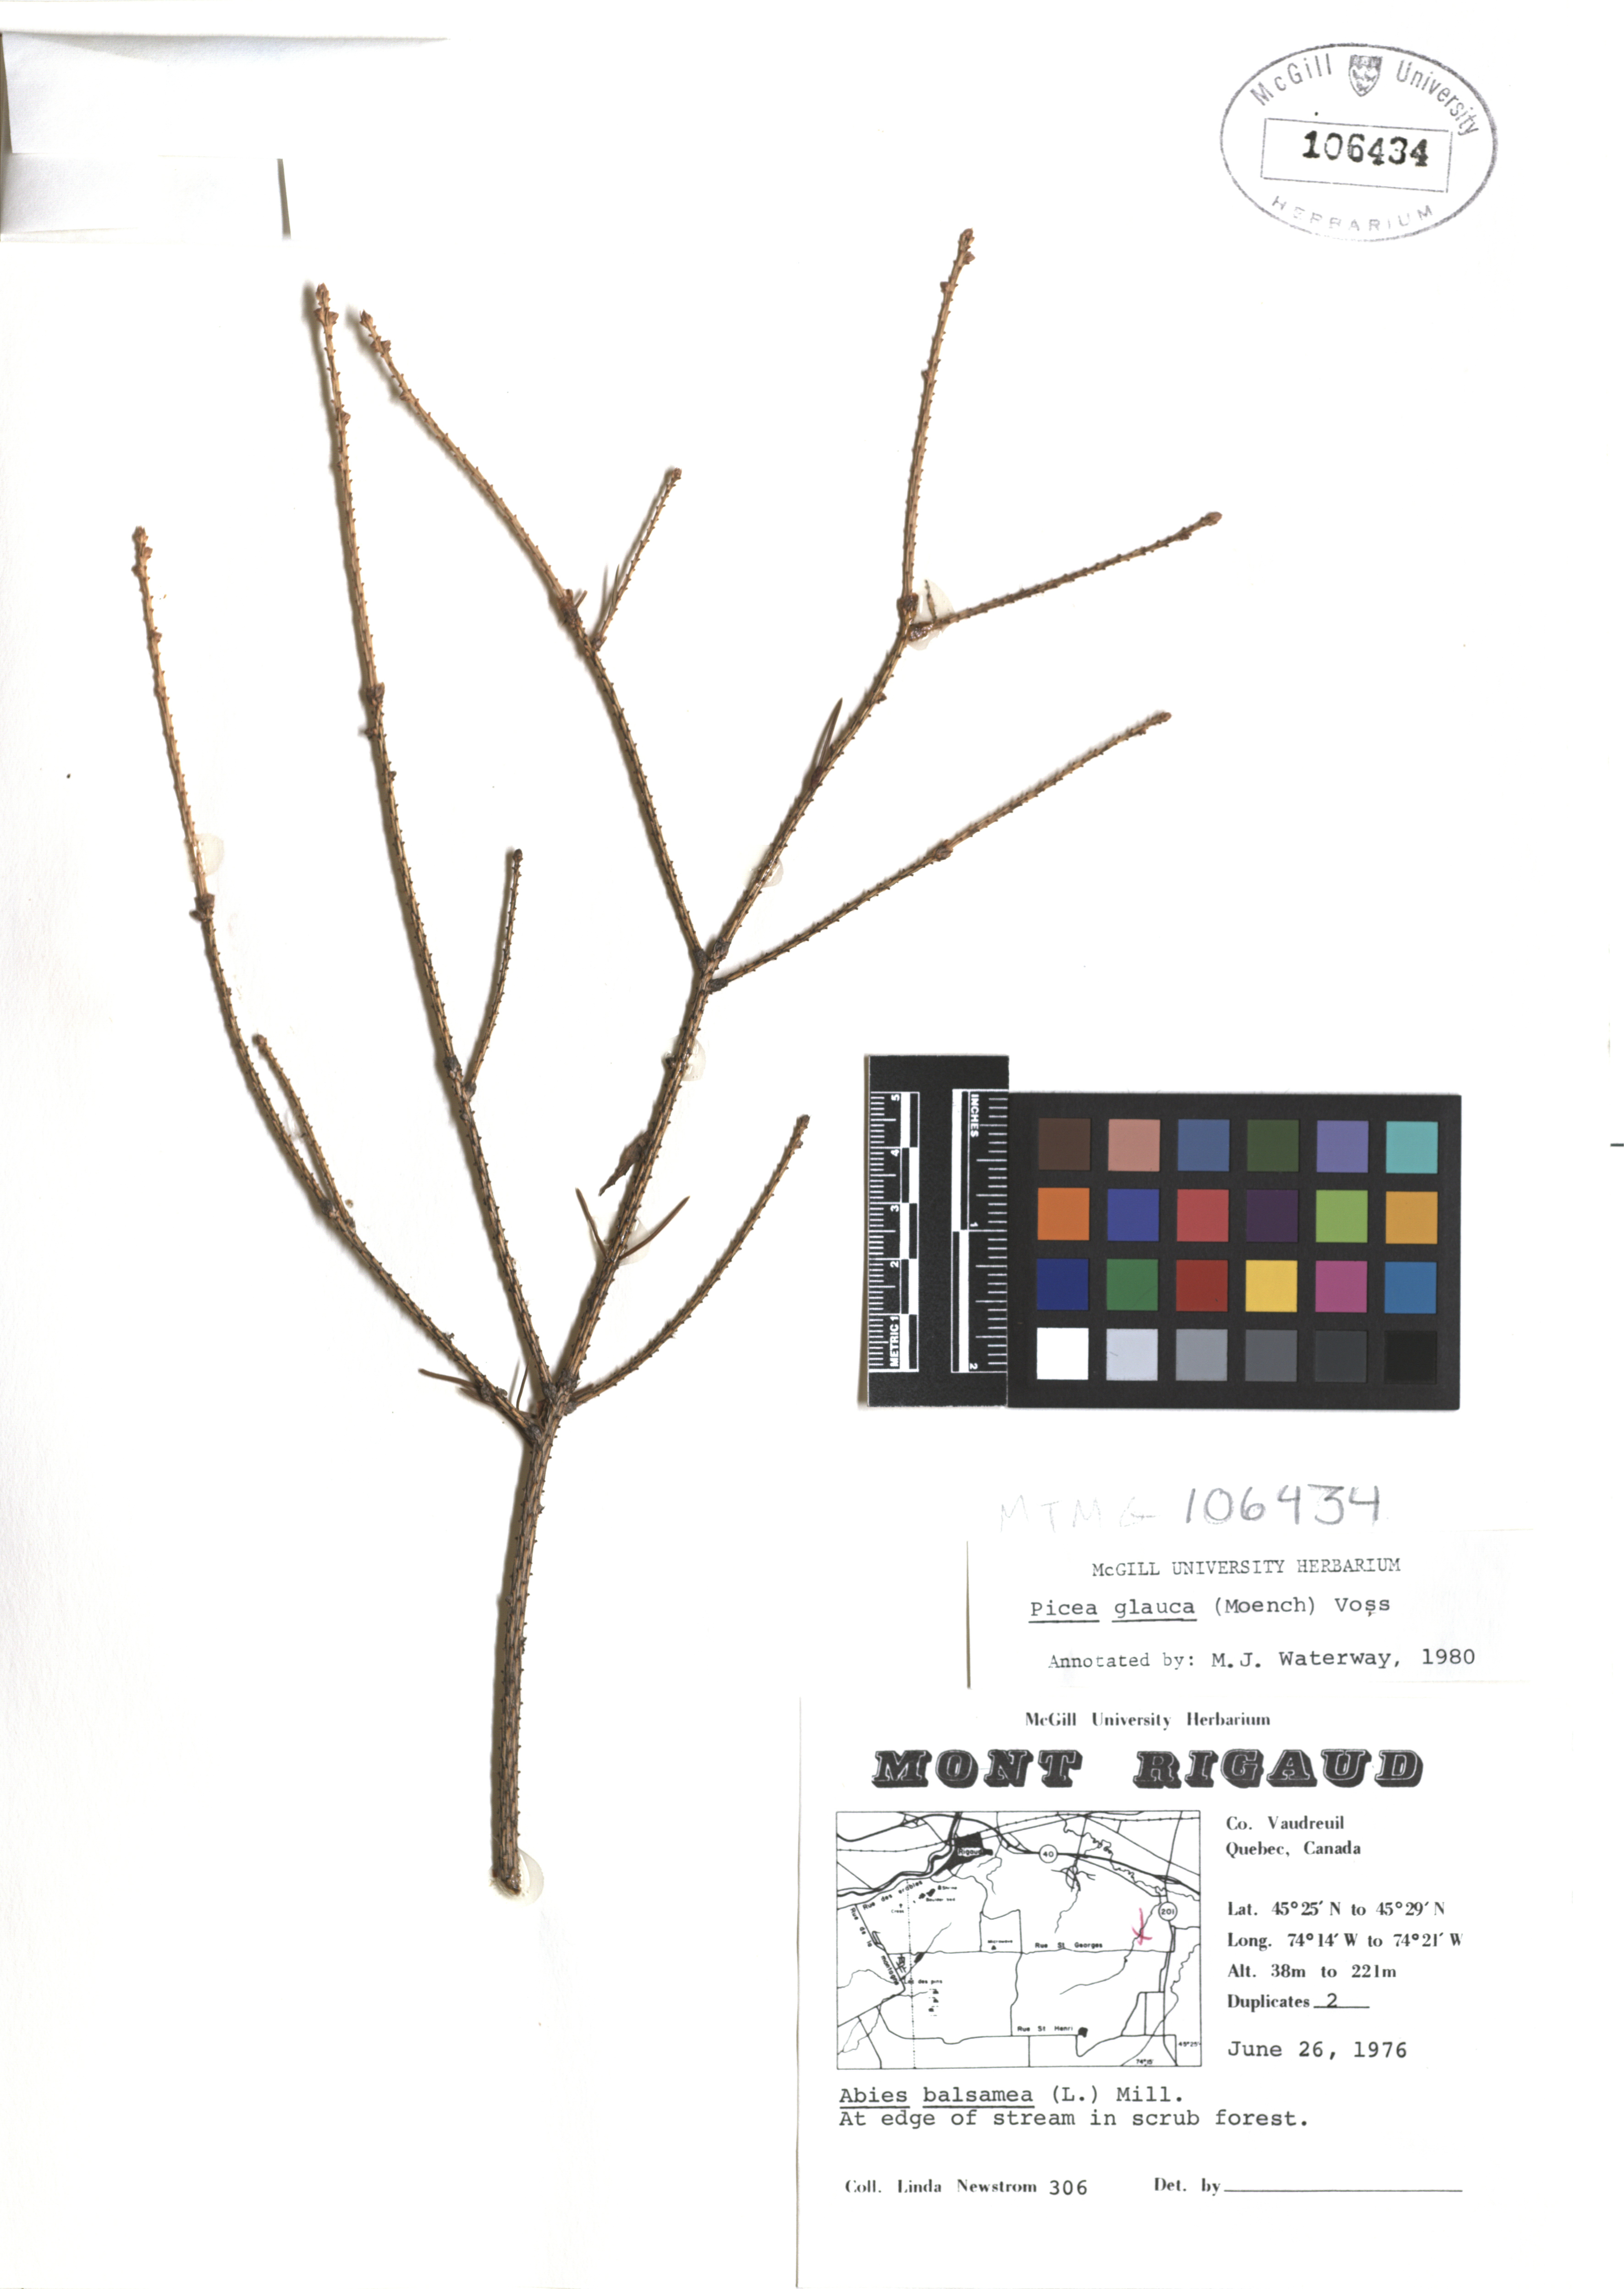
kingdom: Plantae
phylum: Tracheophyta
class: Pinopsida
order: Pinales
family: Pinaceae
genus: Picea
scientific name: Picea glauca
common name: White spruce
